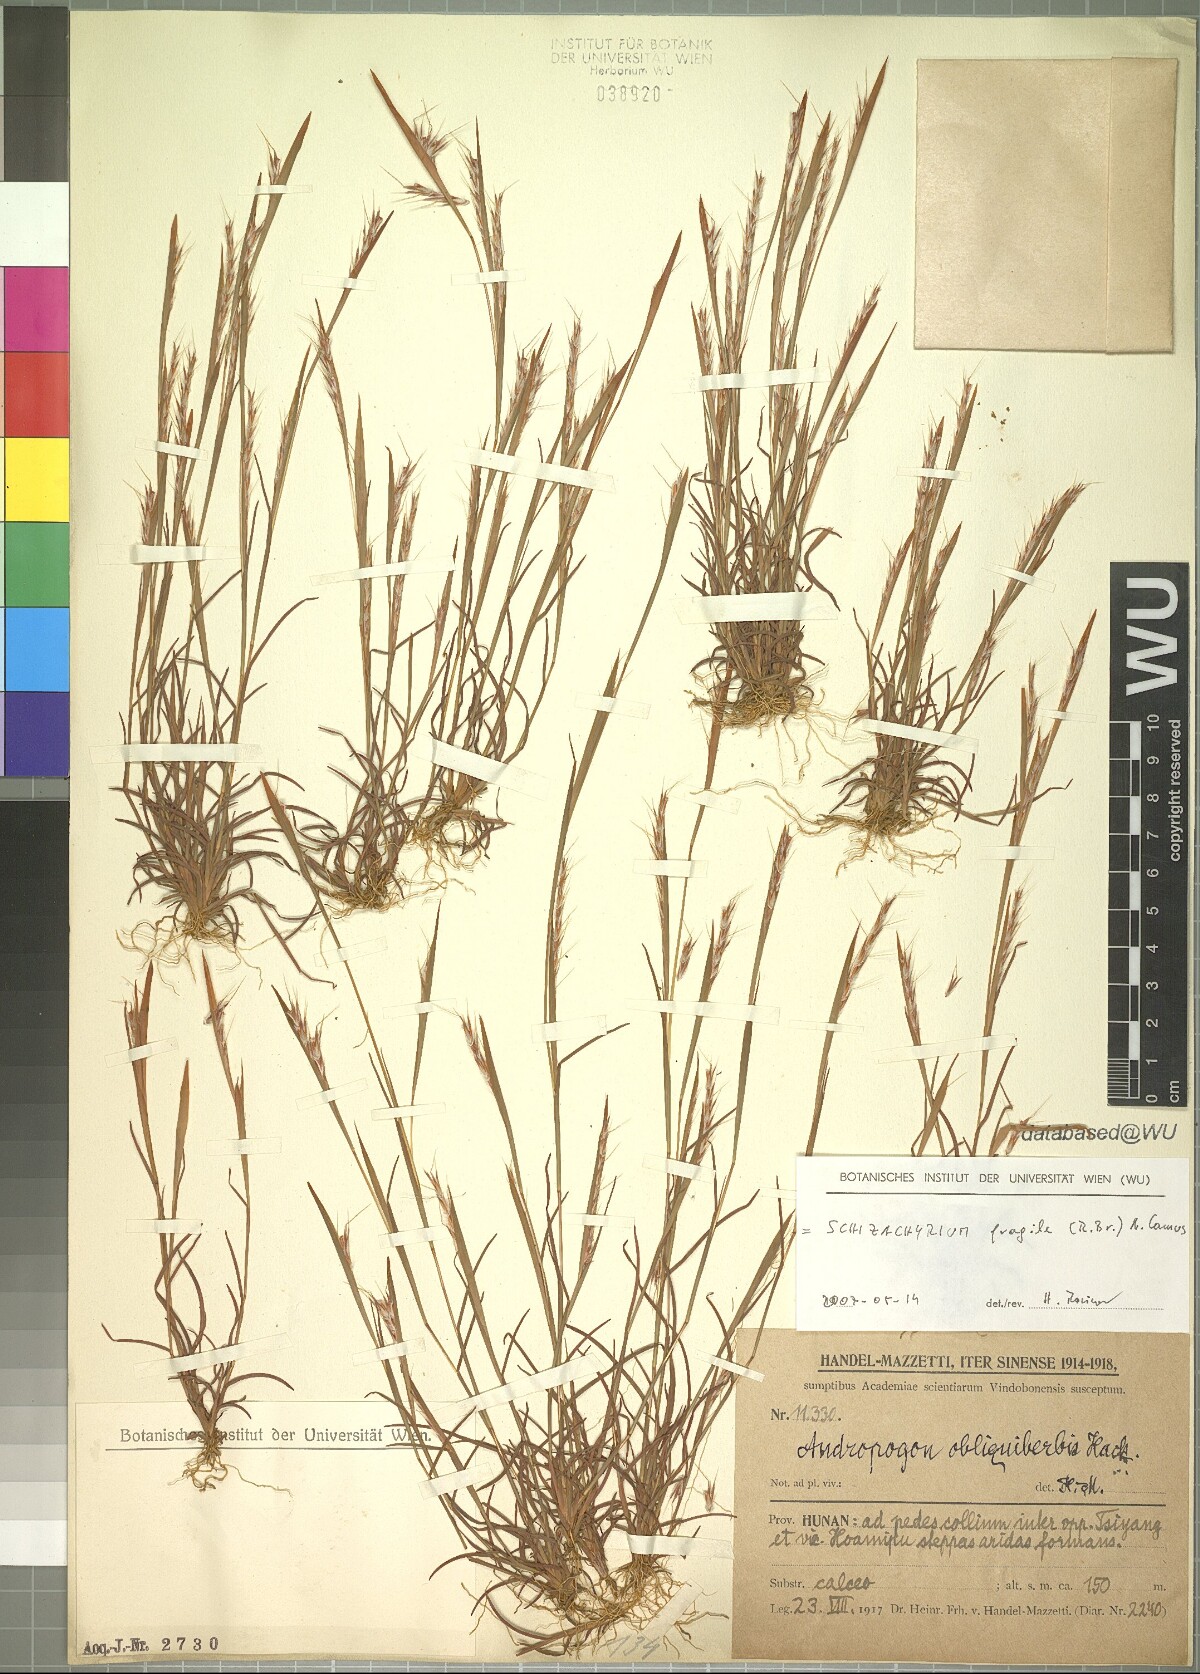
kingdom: Plantae
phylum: Tracheophyta
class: Liliopsida
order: Poales
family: Poaceae
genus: Schizachyrium
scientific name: Schizachyrium fragile
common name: Red spathe grass
